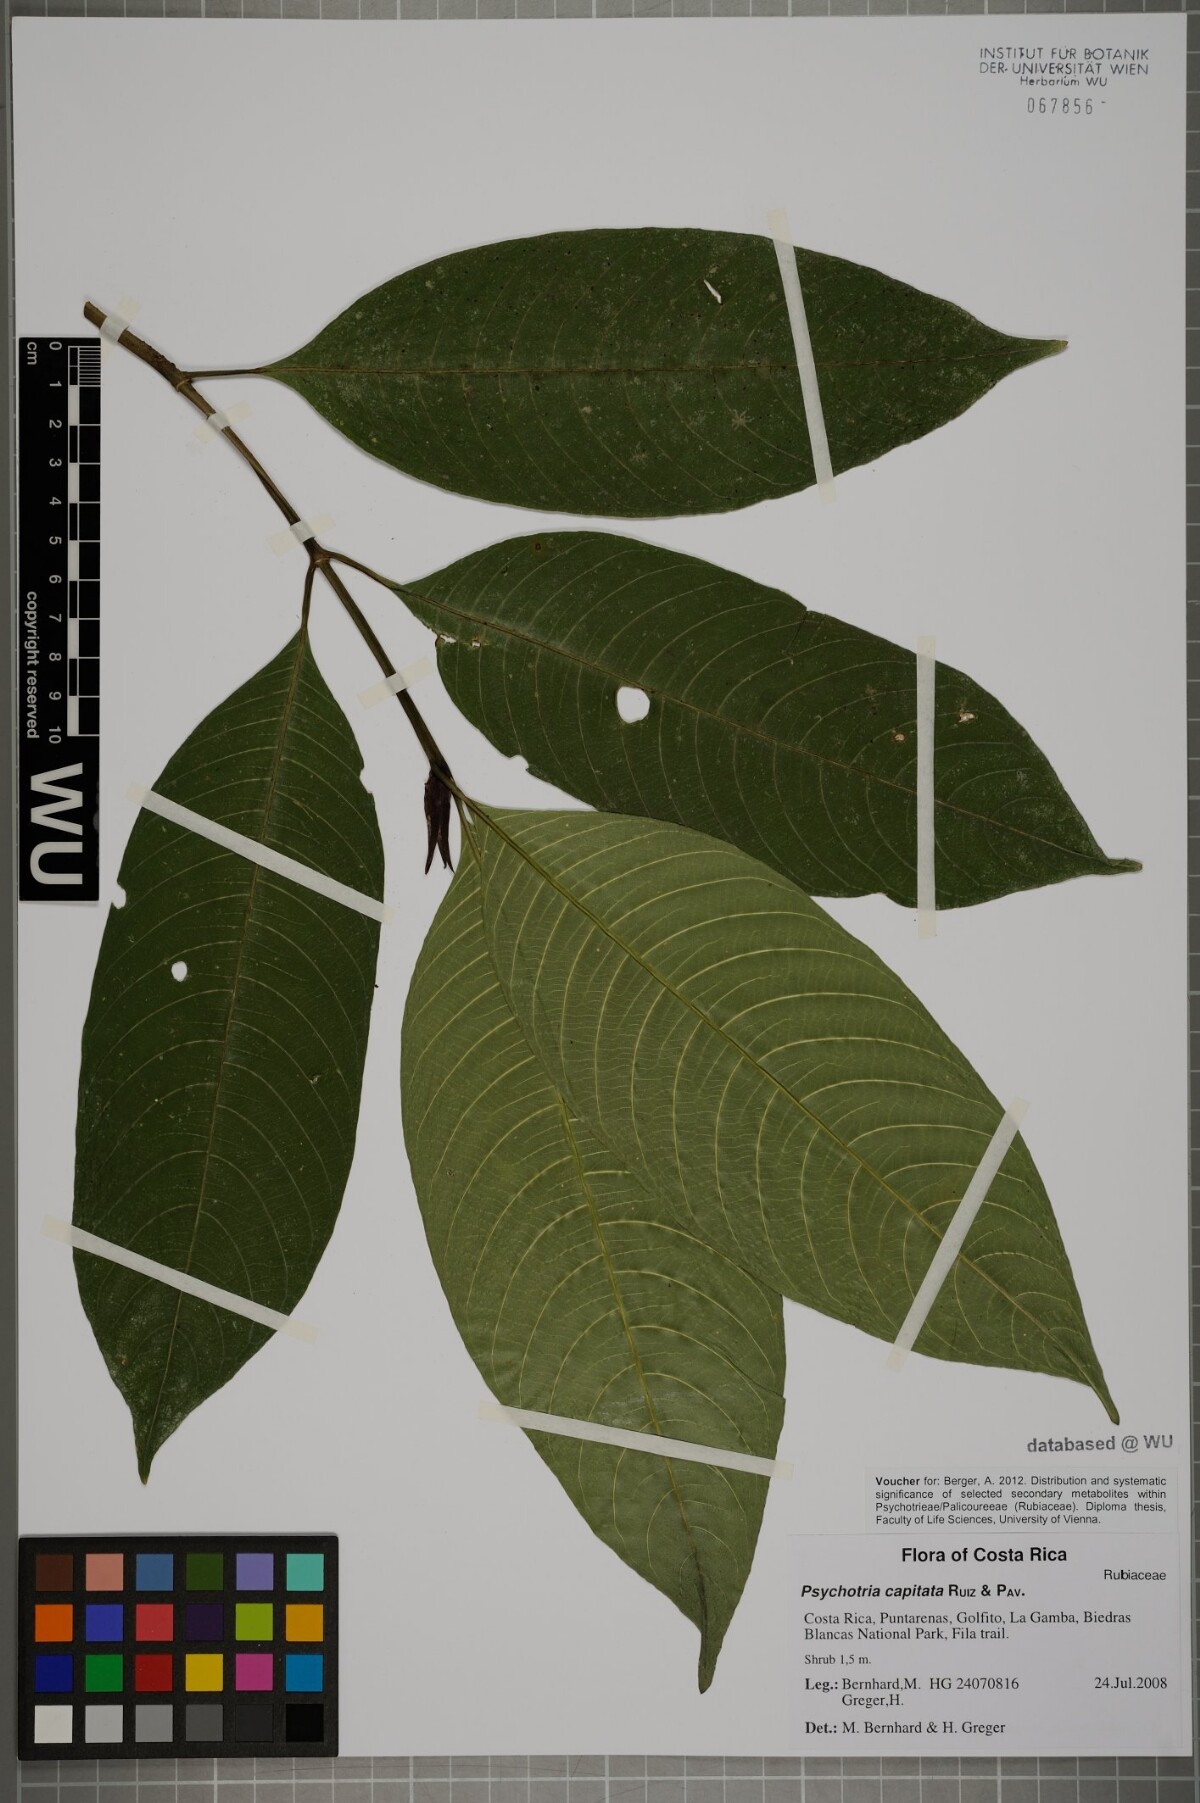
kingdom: Plantae
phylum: Tracheophyta
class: Magnoliopsida
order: Gentianales
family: Rubiaceae
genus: Palicourea
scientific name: Palicourea violacea
